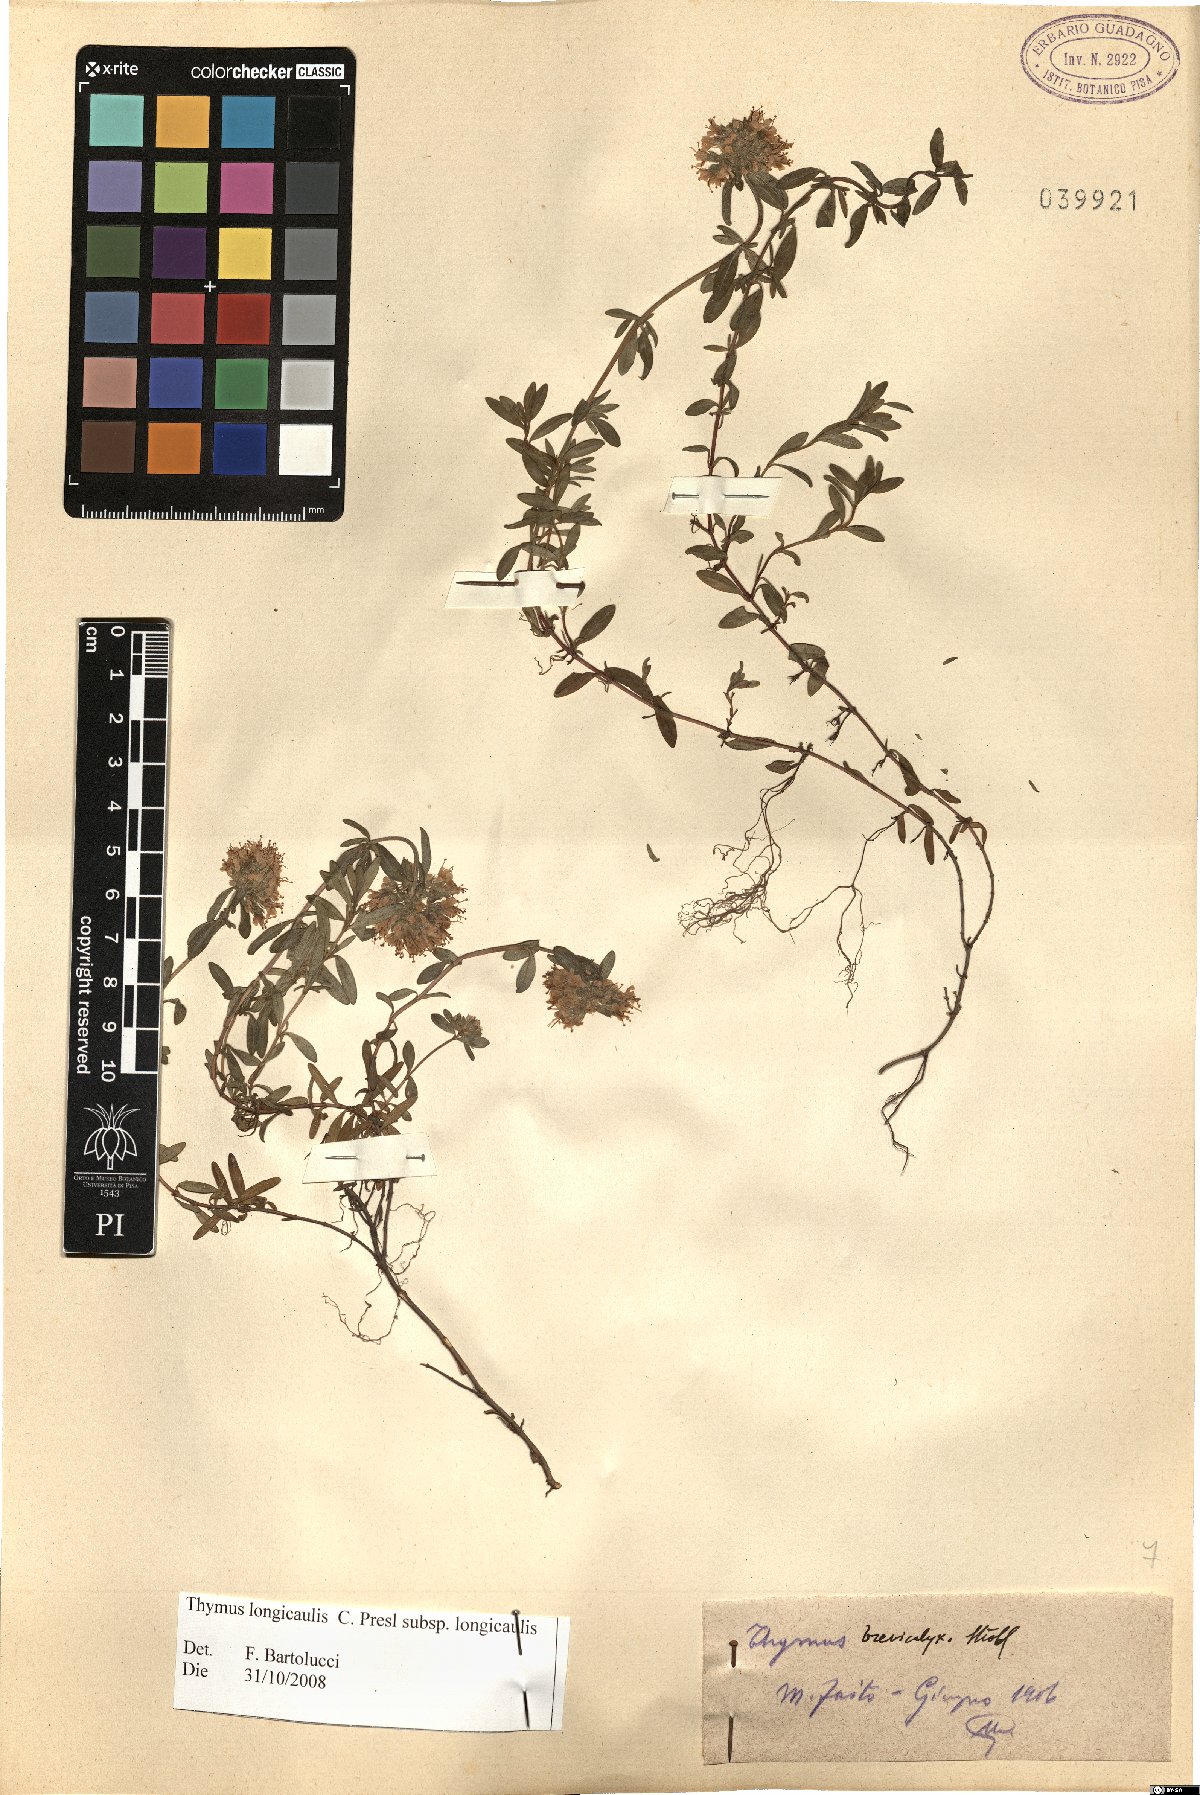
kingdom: Plantae
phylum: Tracheophyta
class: Magnoliopsida
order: Lamiales
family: Lamiaceae
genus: Thymus
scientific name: Thymus longicaulis
